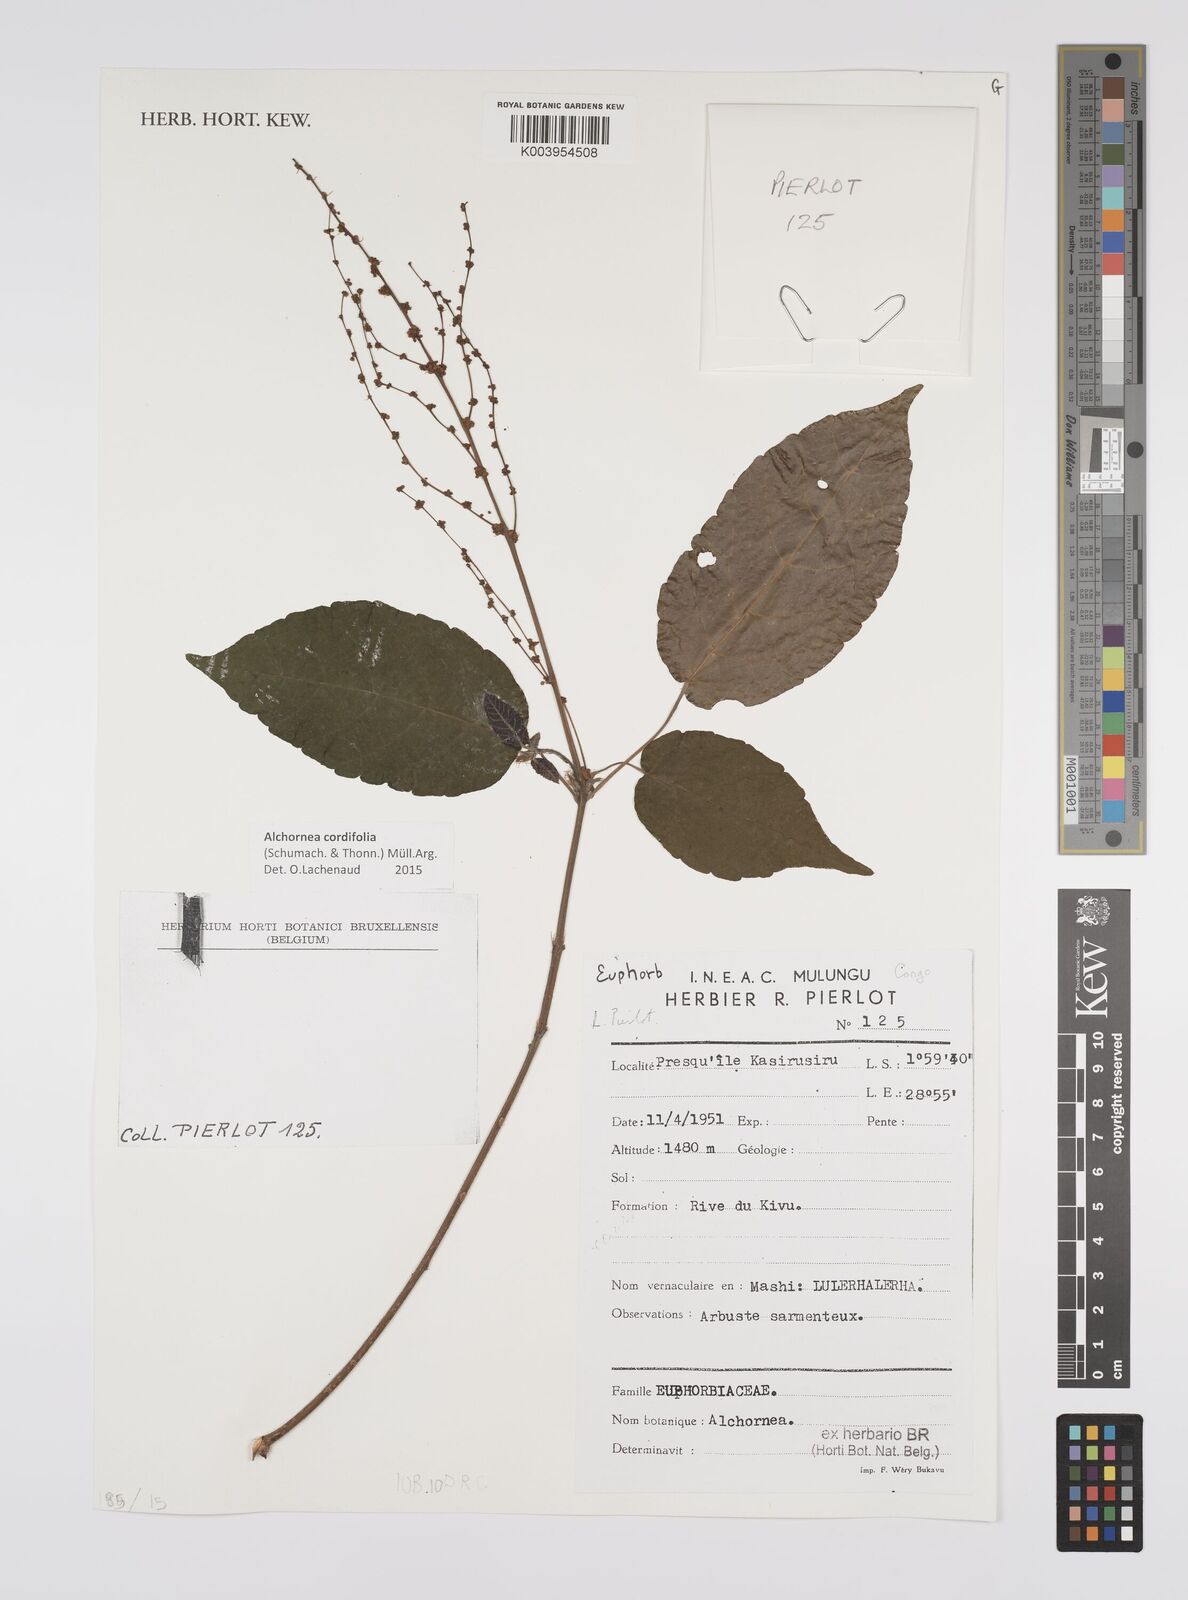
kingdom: Plantae
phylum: Tracheophyta
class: Magnoliopsida
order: Malpighiales
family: Euphorbiaceae
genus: Alchornea
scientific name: Alchornea cordifolia
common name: Christmasbush
